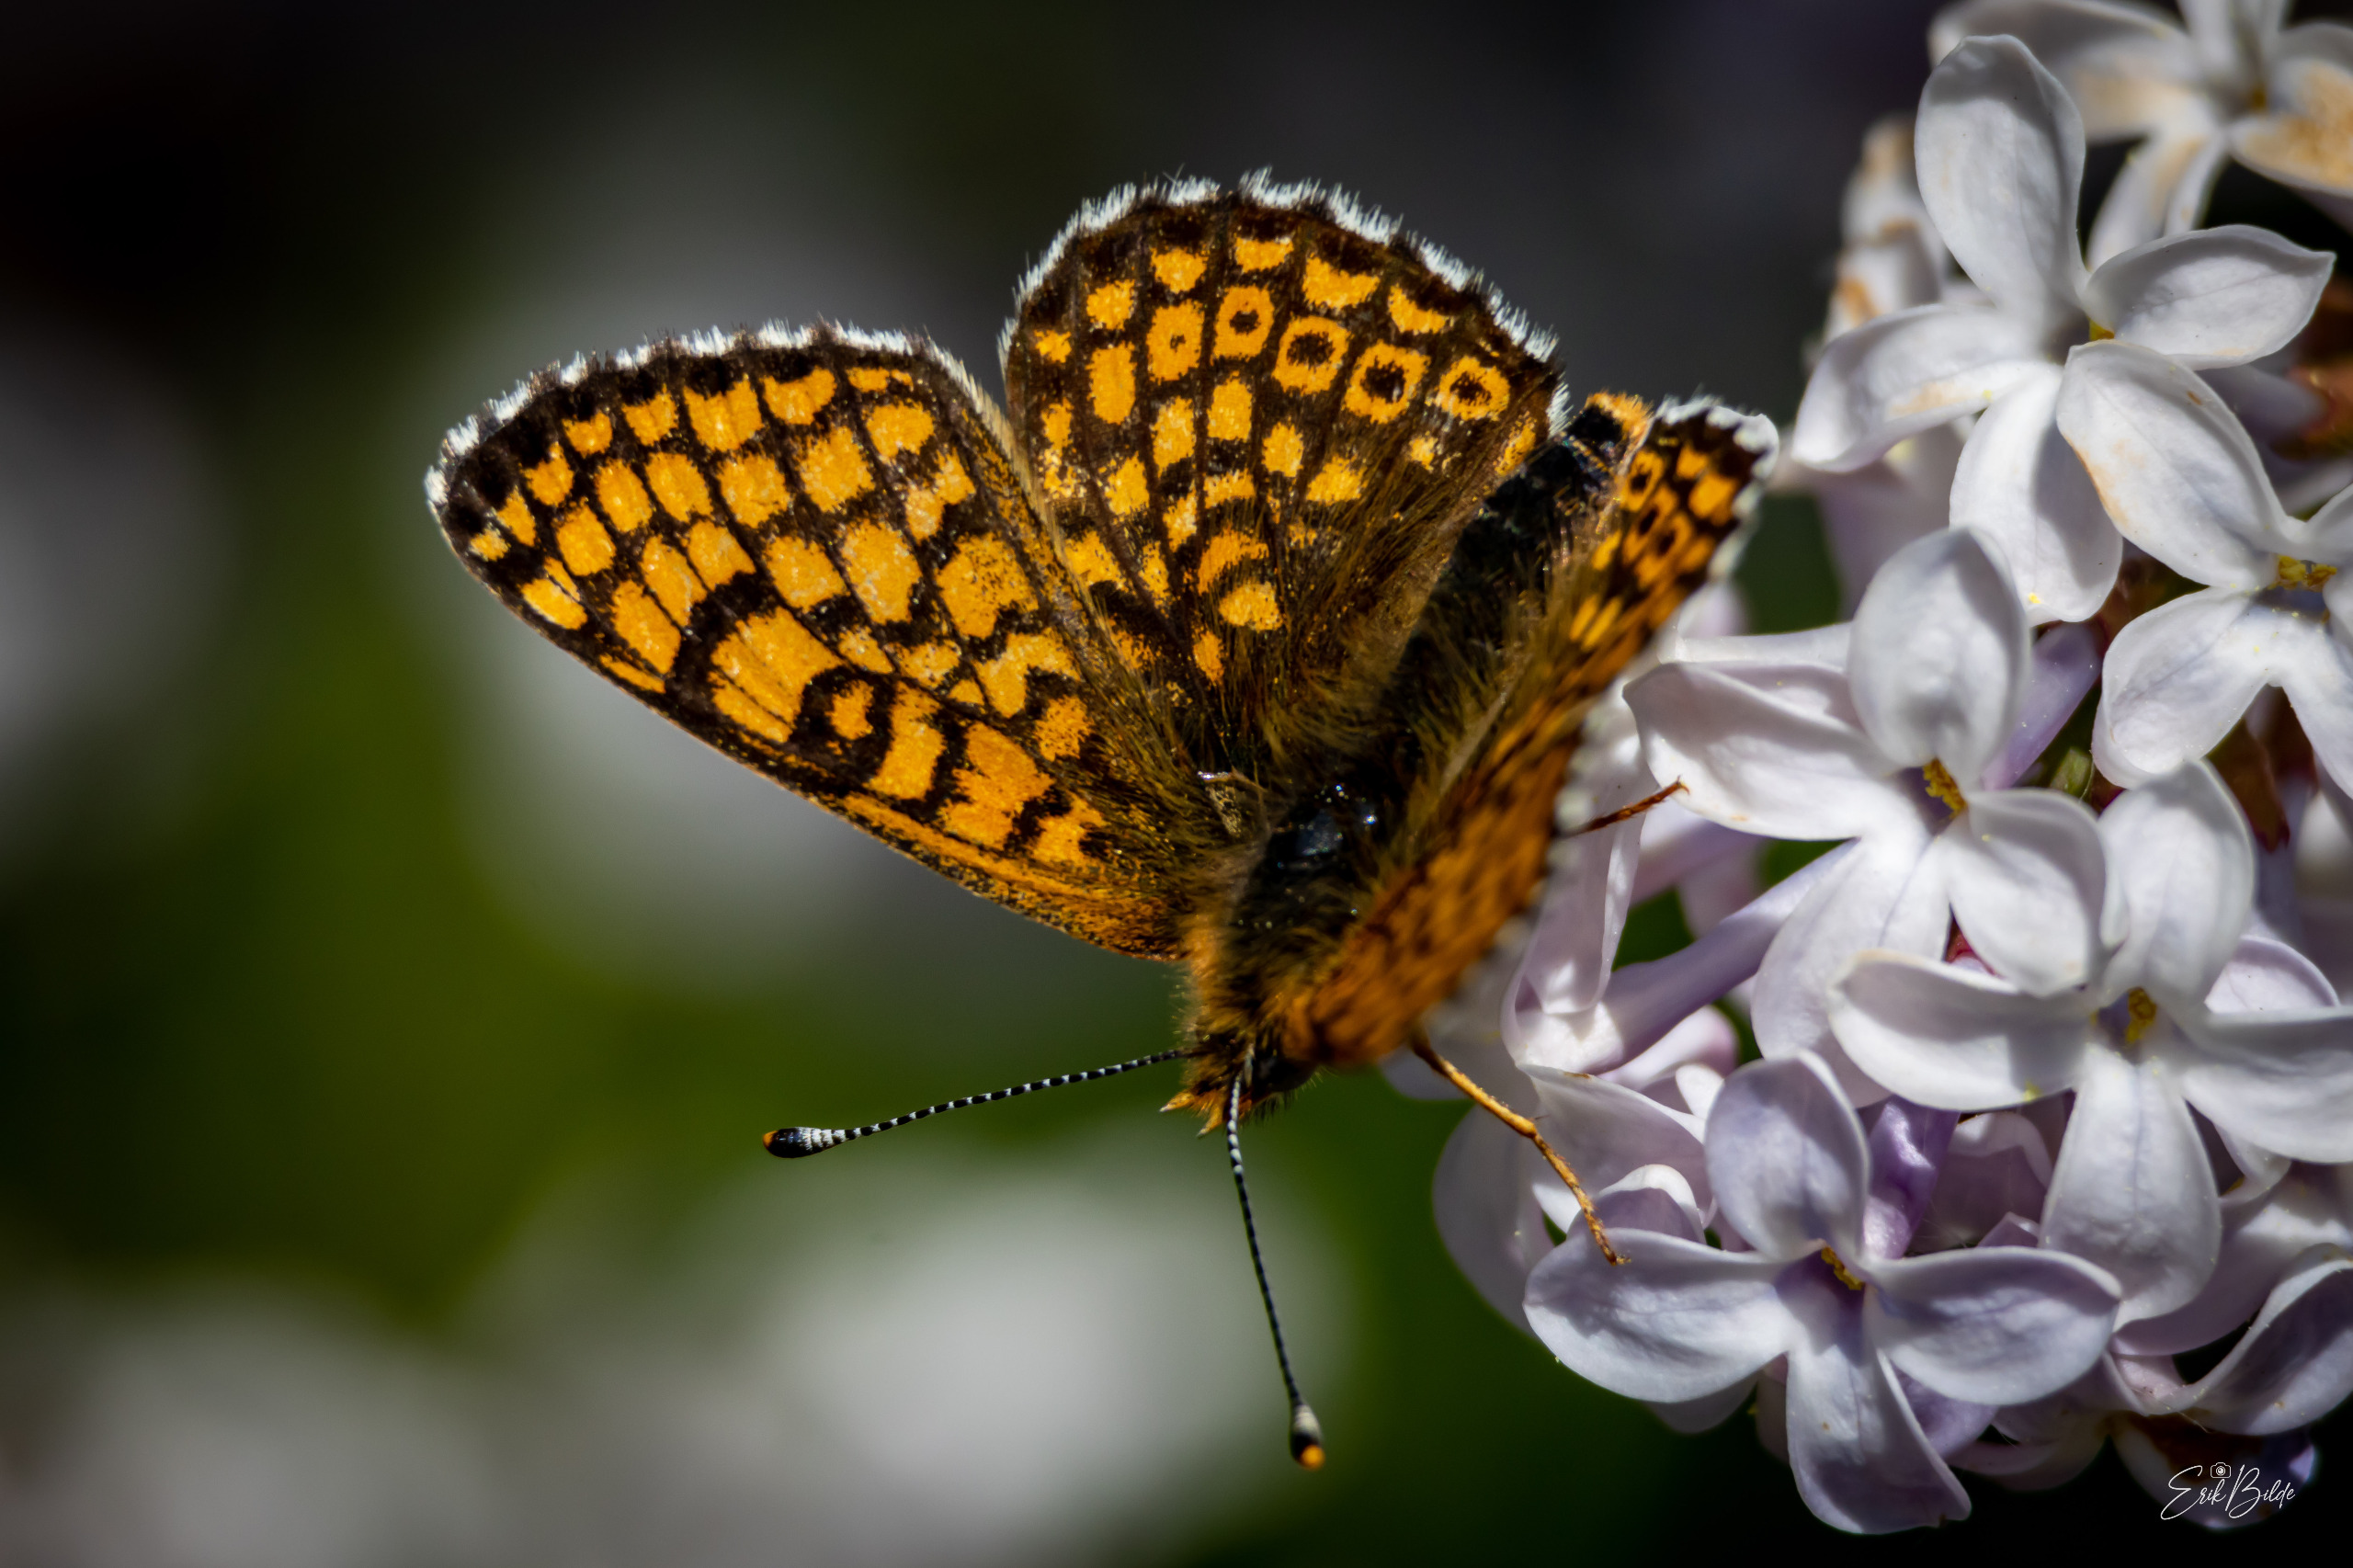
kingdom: Animalia
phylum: Arthropoda
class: Insecta
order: Lepidoptera
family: Nymphalidae
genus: Melitaea
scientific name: Melitaea cinxia
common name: Okkergul pletvinge
